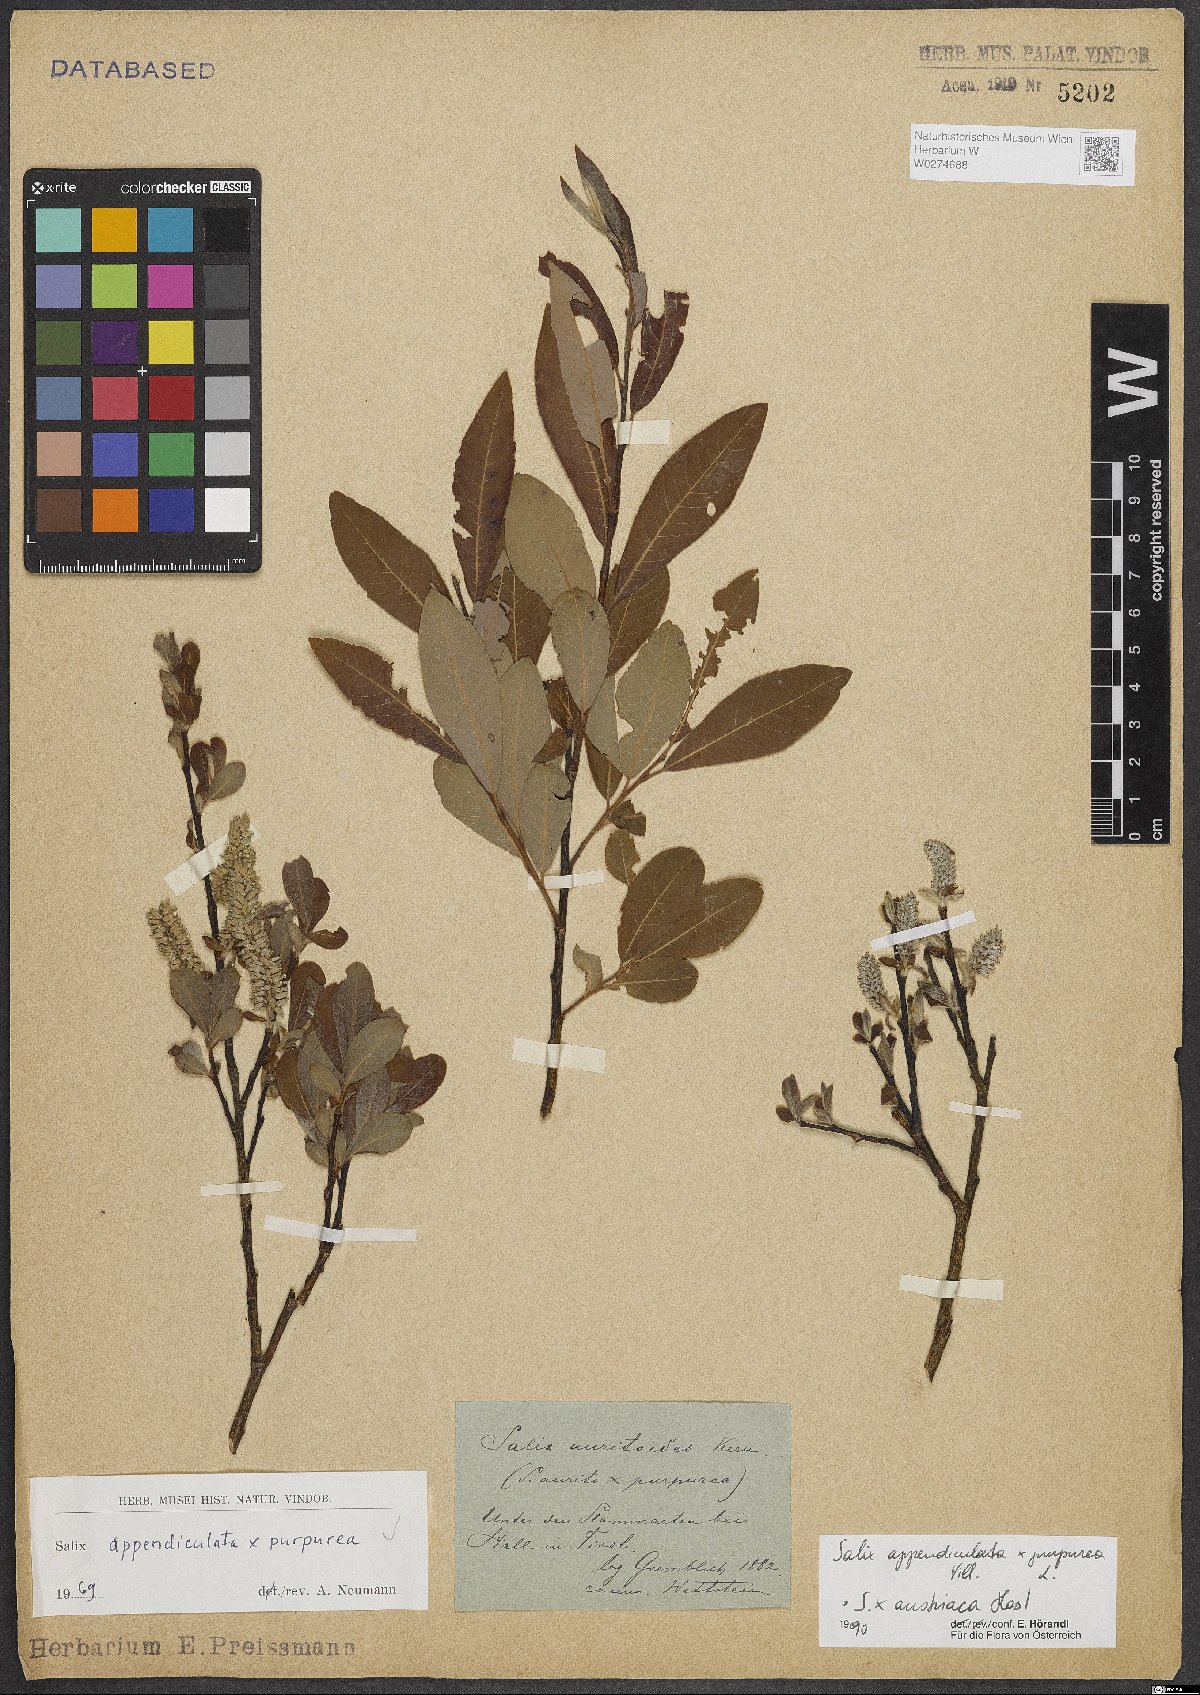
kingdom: Plantae
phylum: Tracheophyta
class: Magnoliopsida
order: Malpighiales
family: Salicaceae
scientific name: Salicaceae
